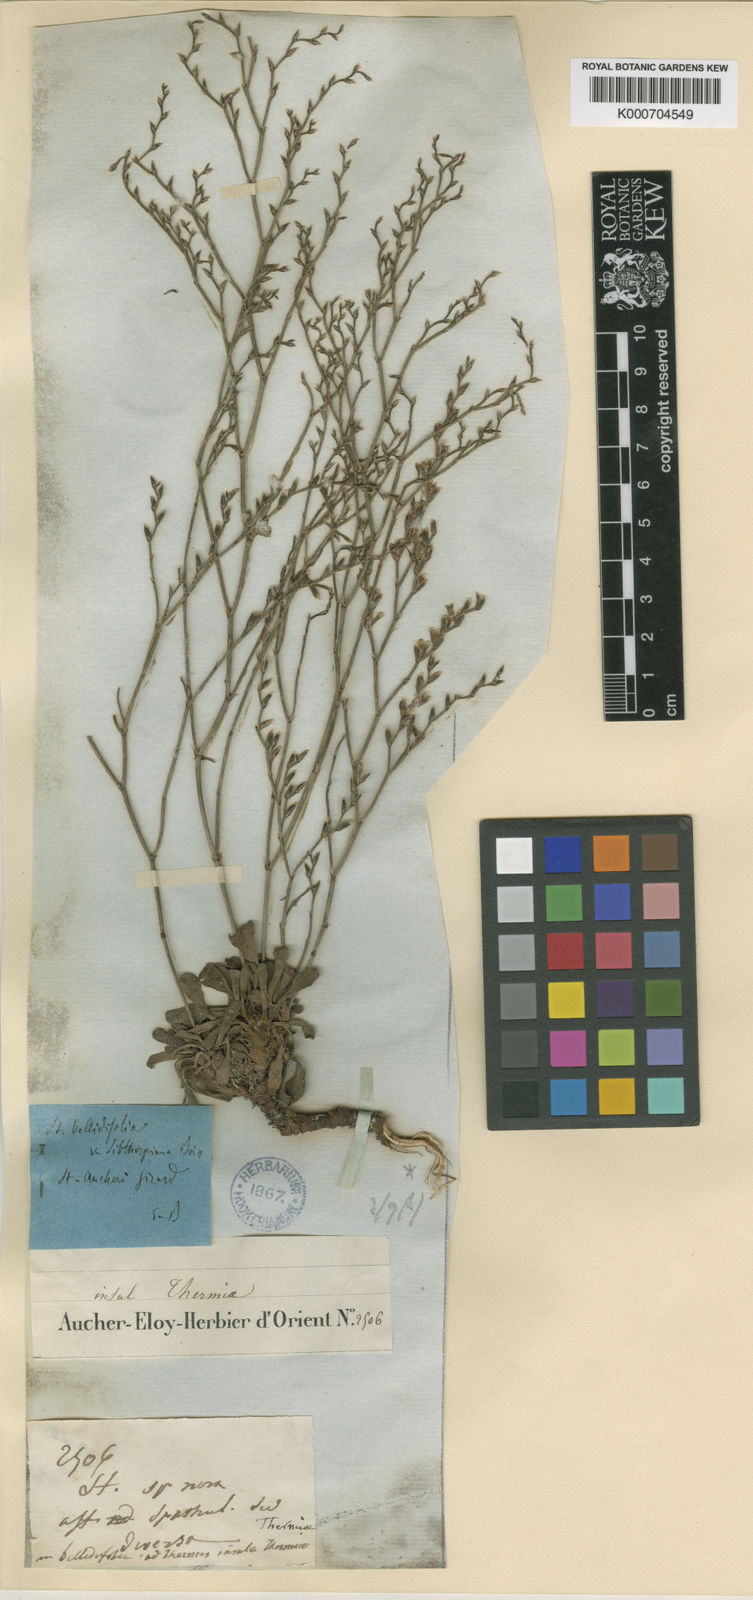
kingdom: Plantae
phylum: Tracheophyta
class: Magnoliopsida
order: Caryophyllales
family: Plumbaginaceae
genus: Limonium
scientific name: Limonium ocymifolium
